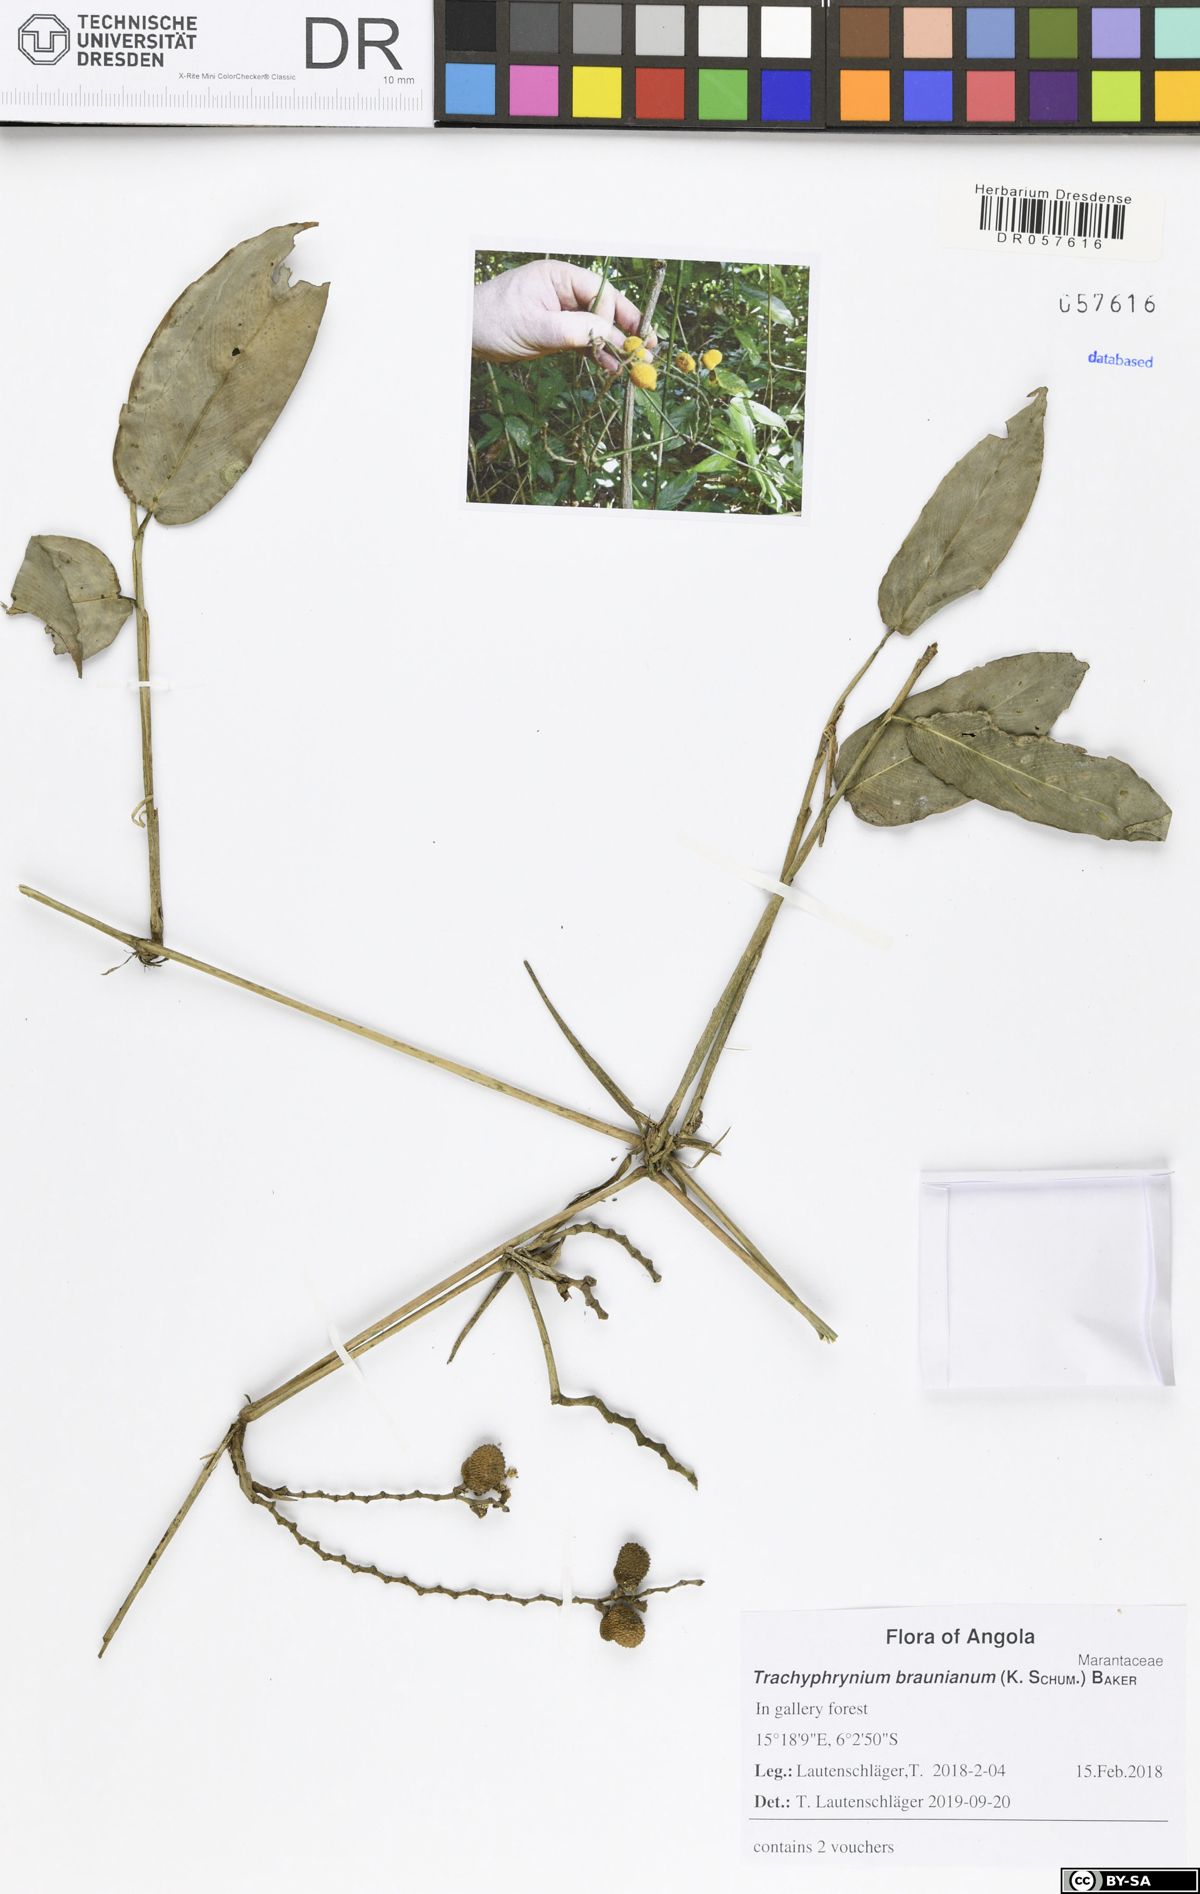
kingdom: Plantae
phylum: Tracheophyta
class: Liliopsida
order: Zingiberales
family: Marantaceae
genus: Trachyphrynium
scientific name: Trachyphrynium braunianum
